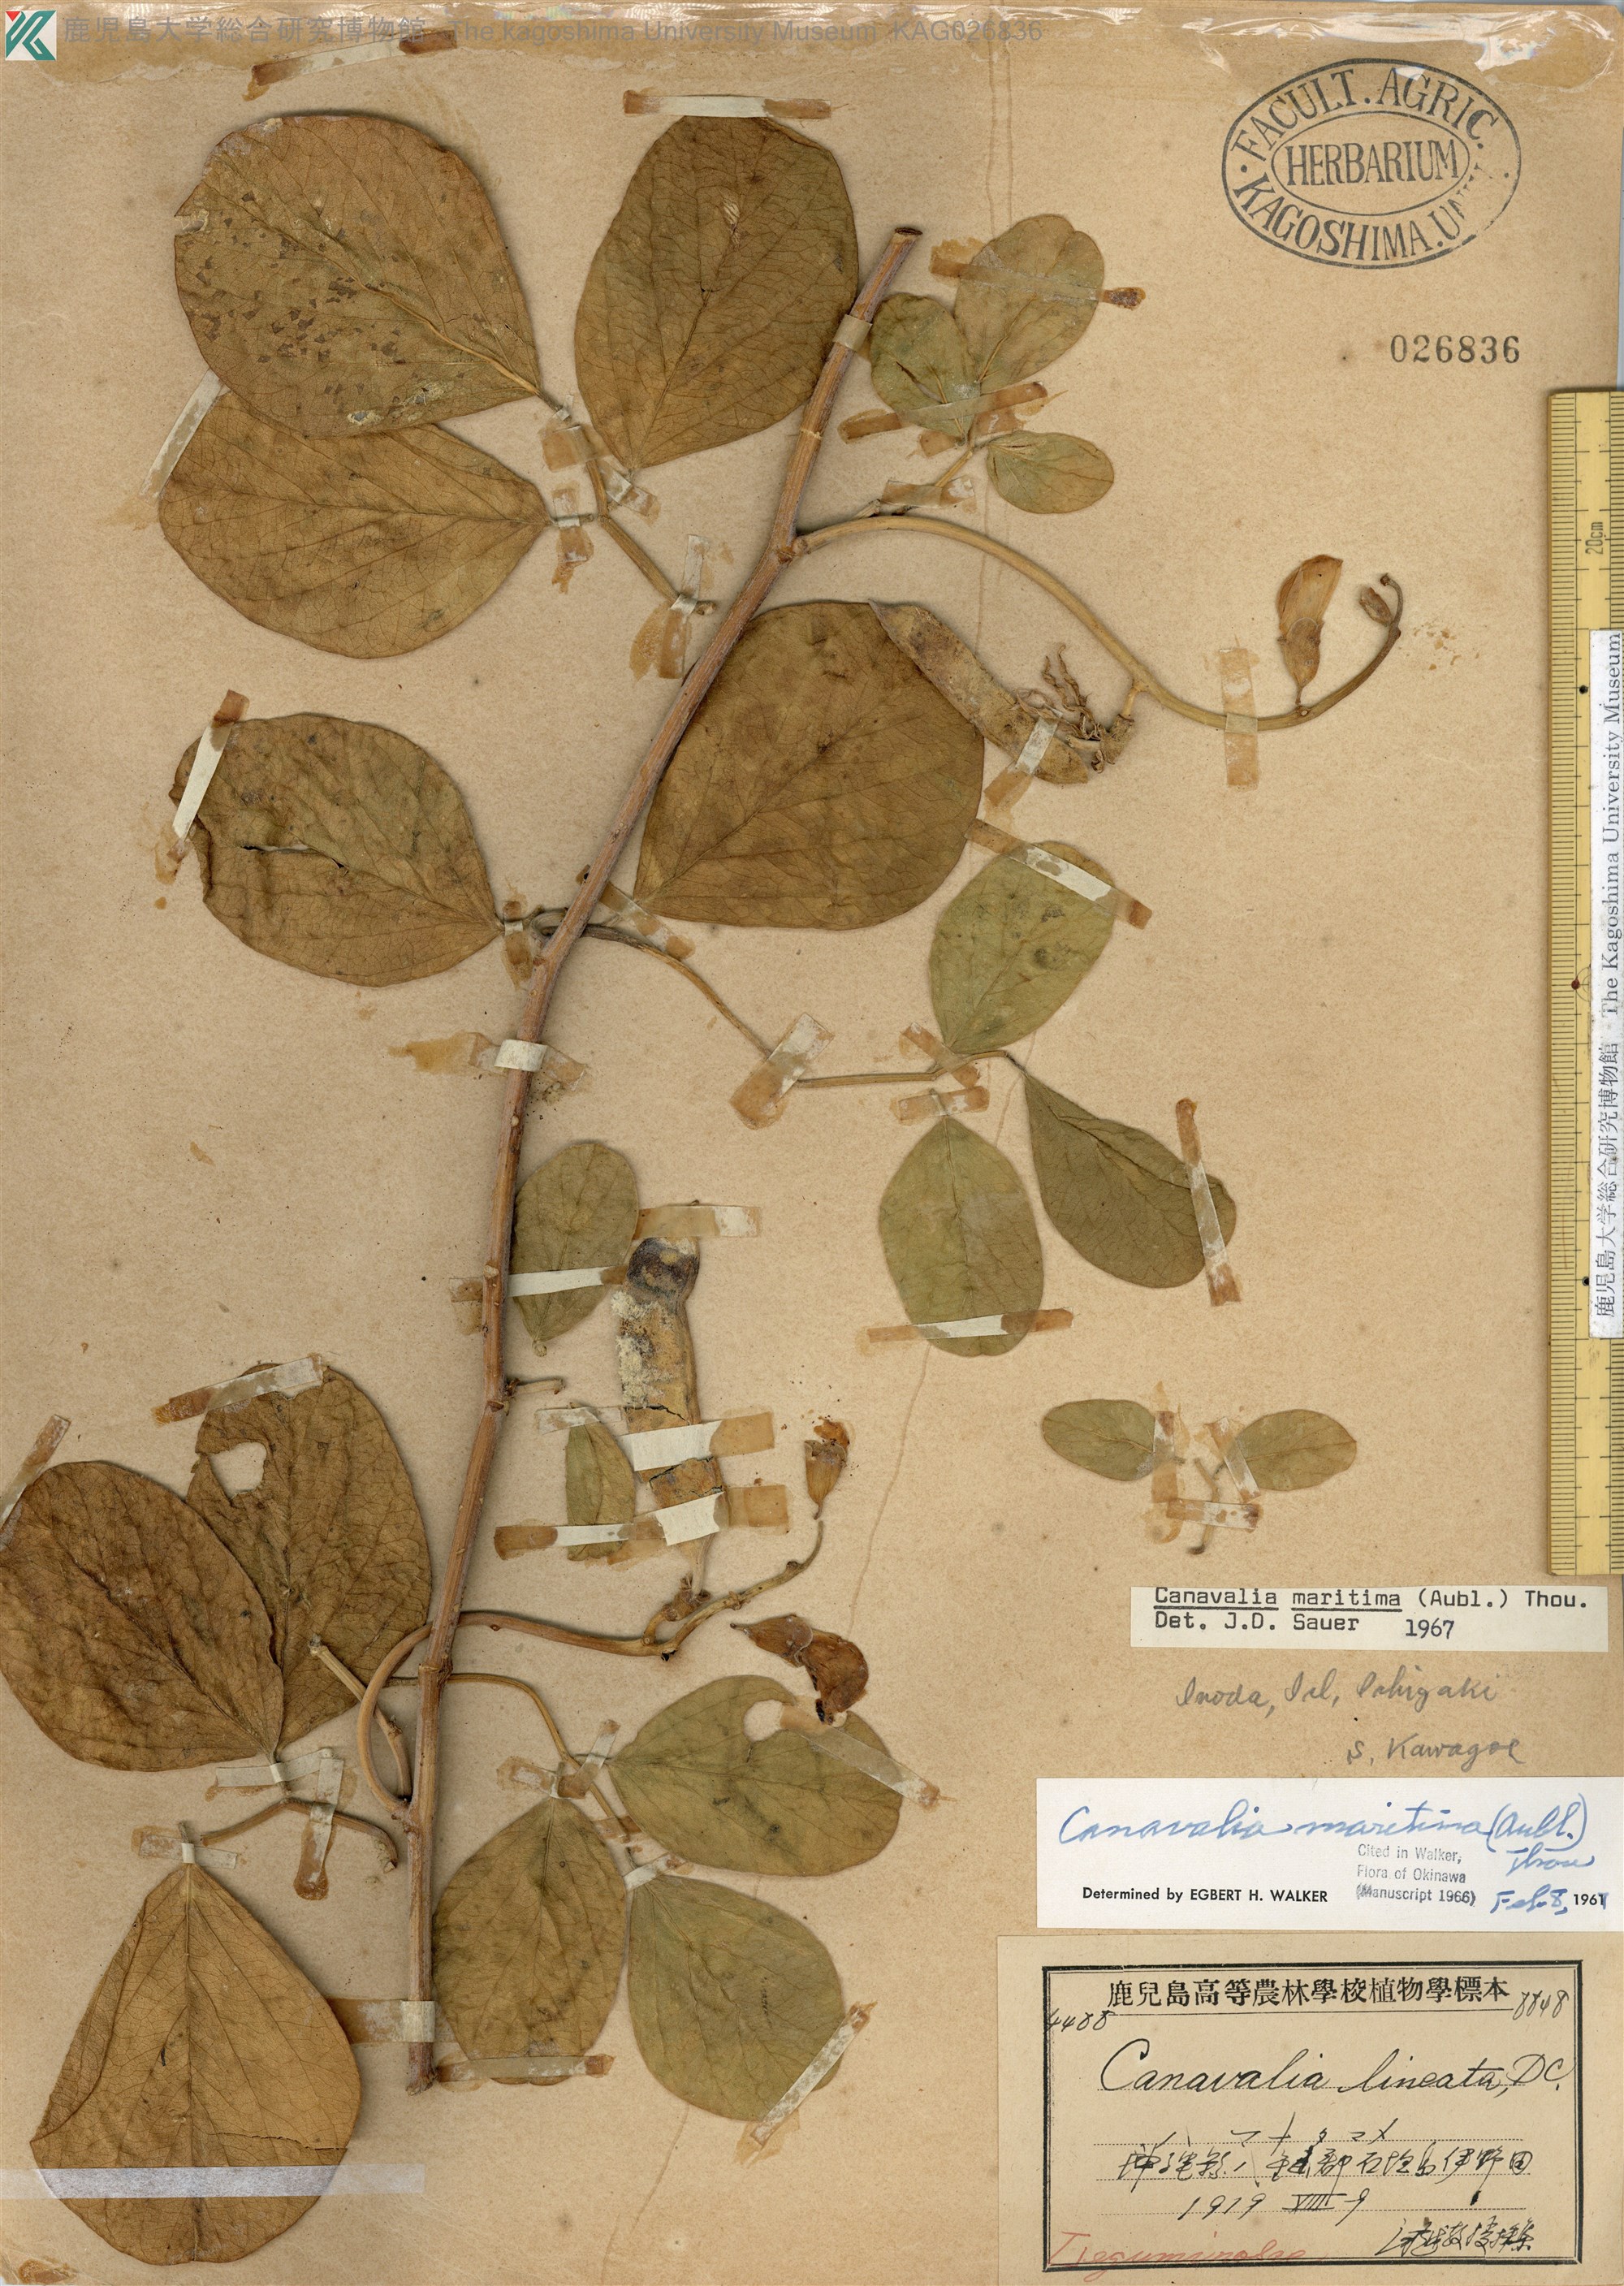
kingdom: Plantae
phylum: Tracheophyta
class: Magnoliopsida
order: Fabales
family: Fabaceae
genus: Canavalia
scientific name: Canavalia rosea
